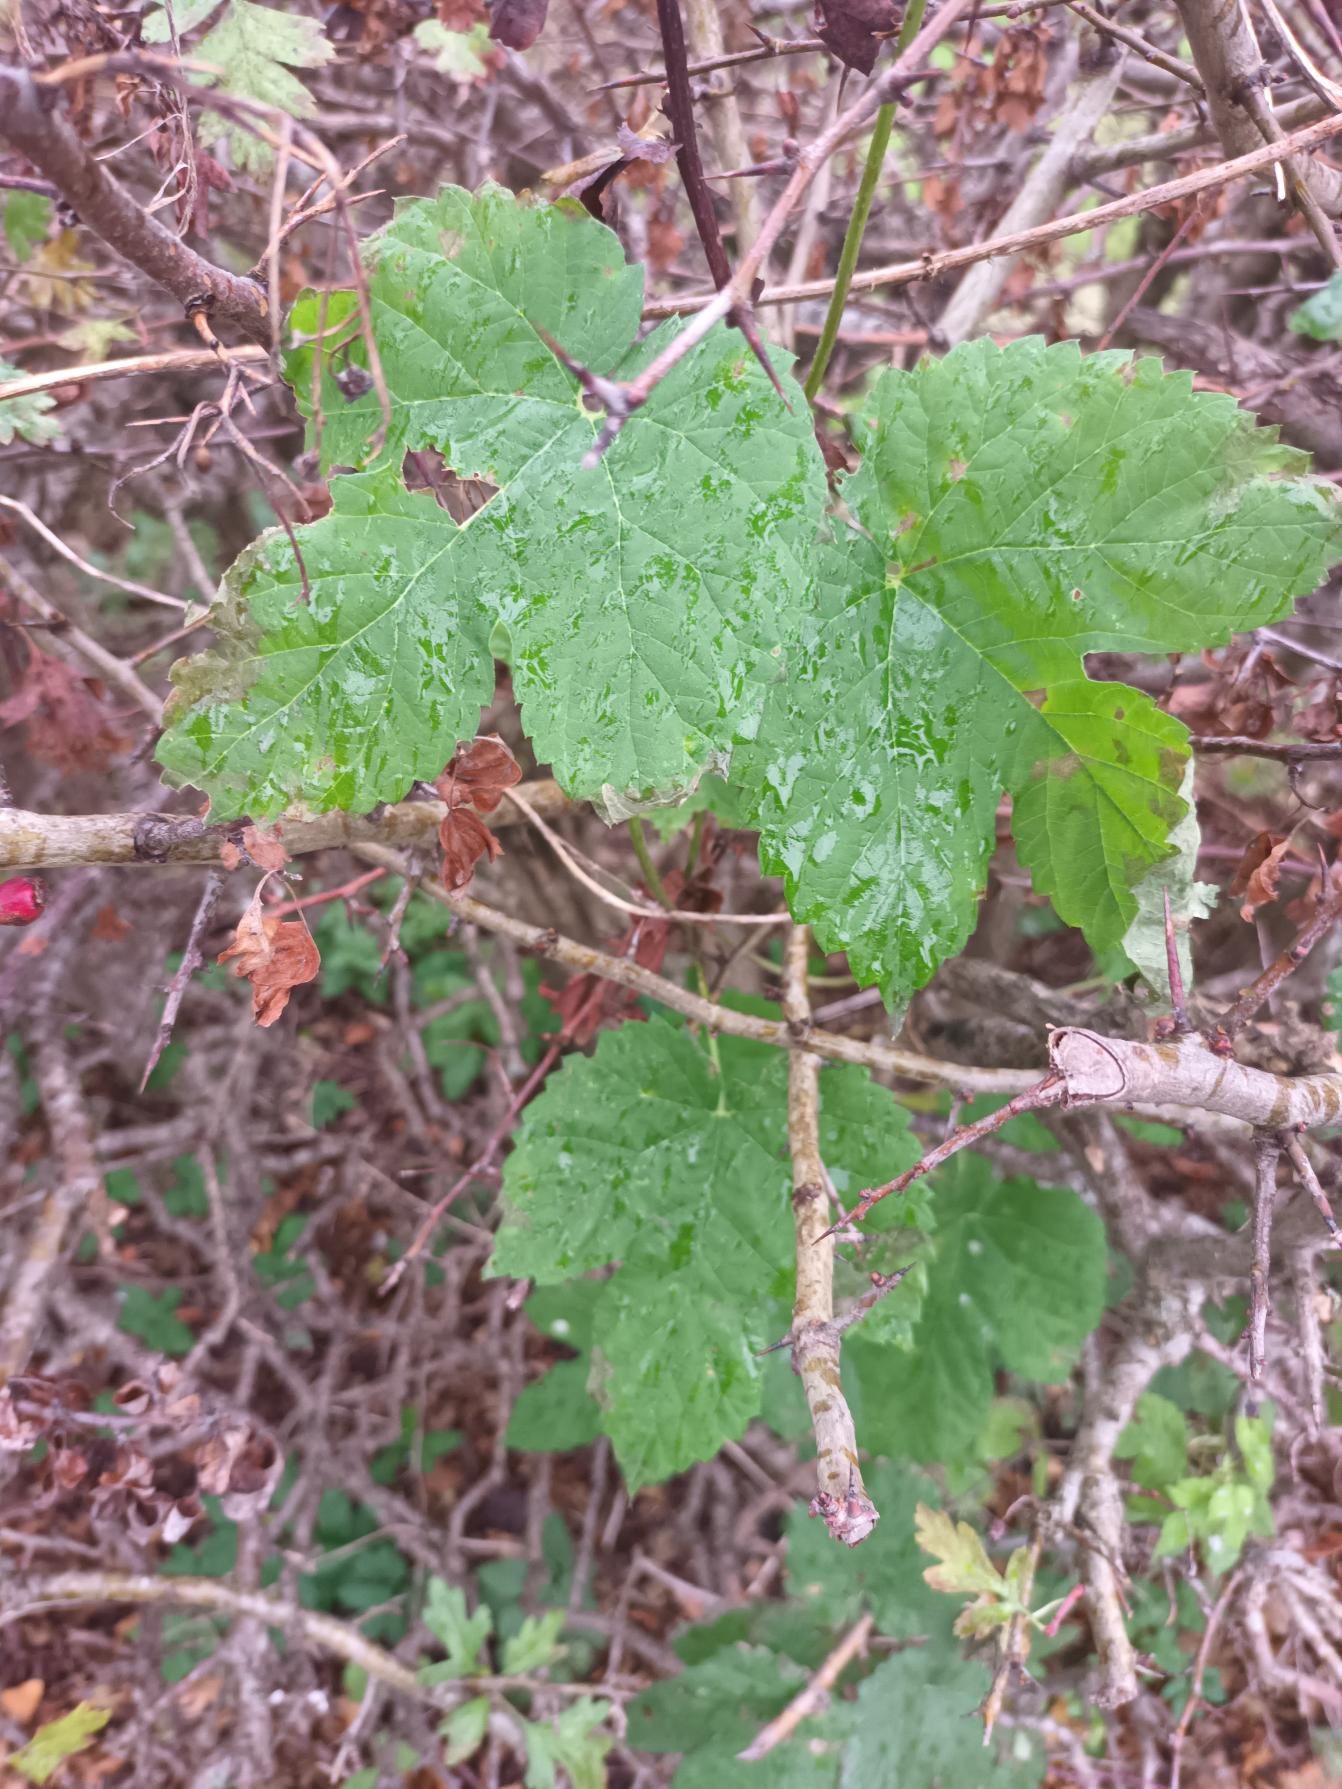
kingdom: Plantae
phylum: Tracheophyta
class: Magnoliopsida
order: Rosales
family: Cannabaceae
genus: Humulus
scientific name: Humulus lupulus
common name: Humle
